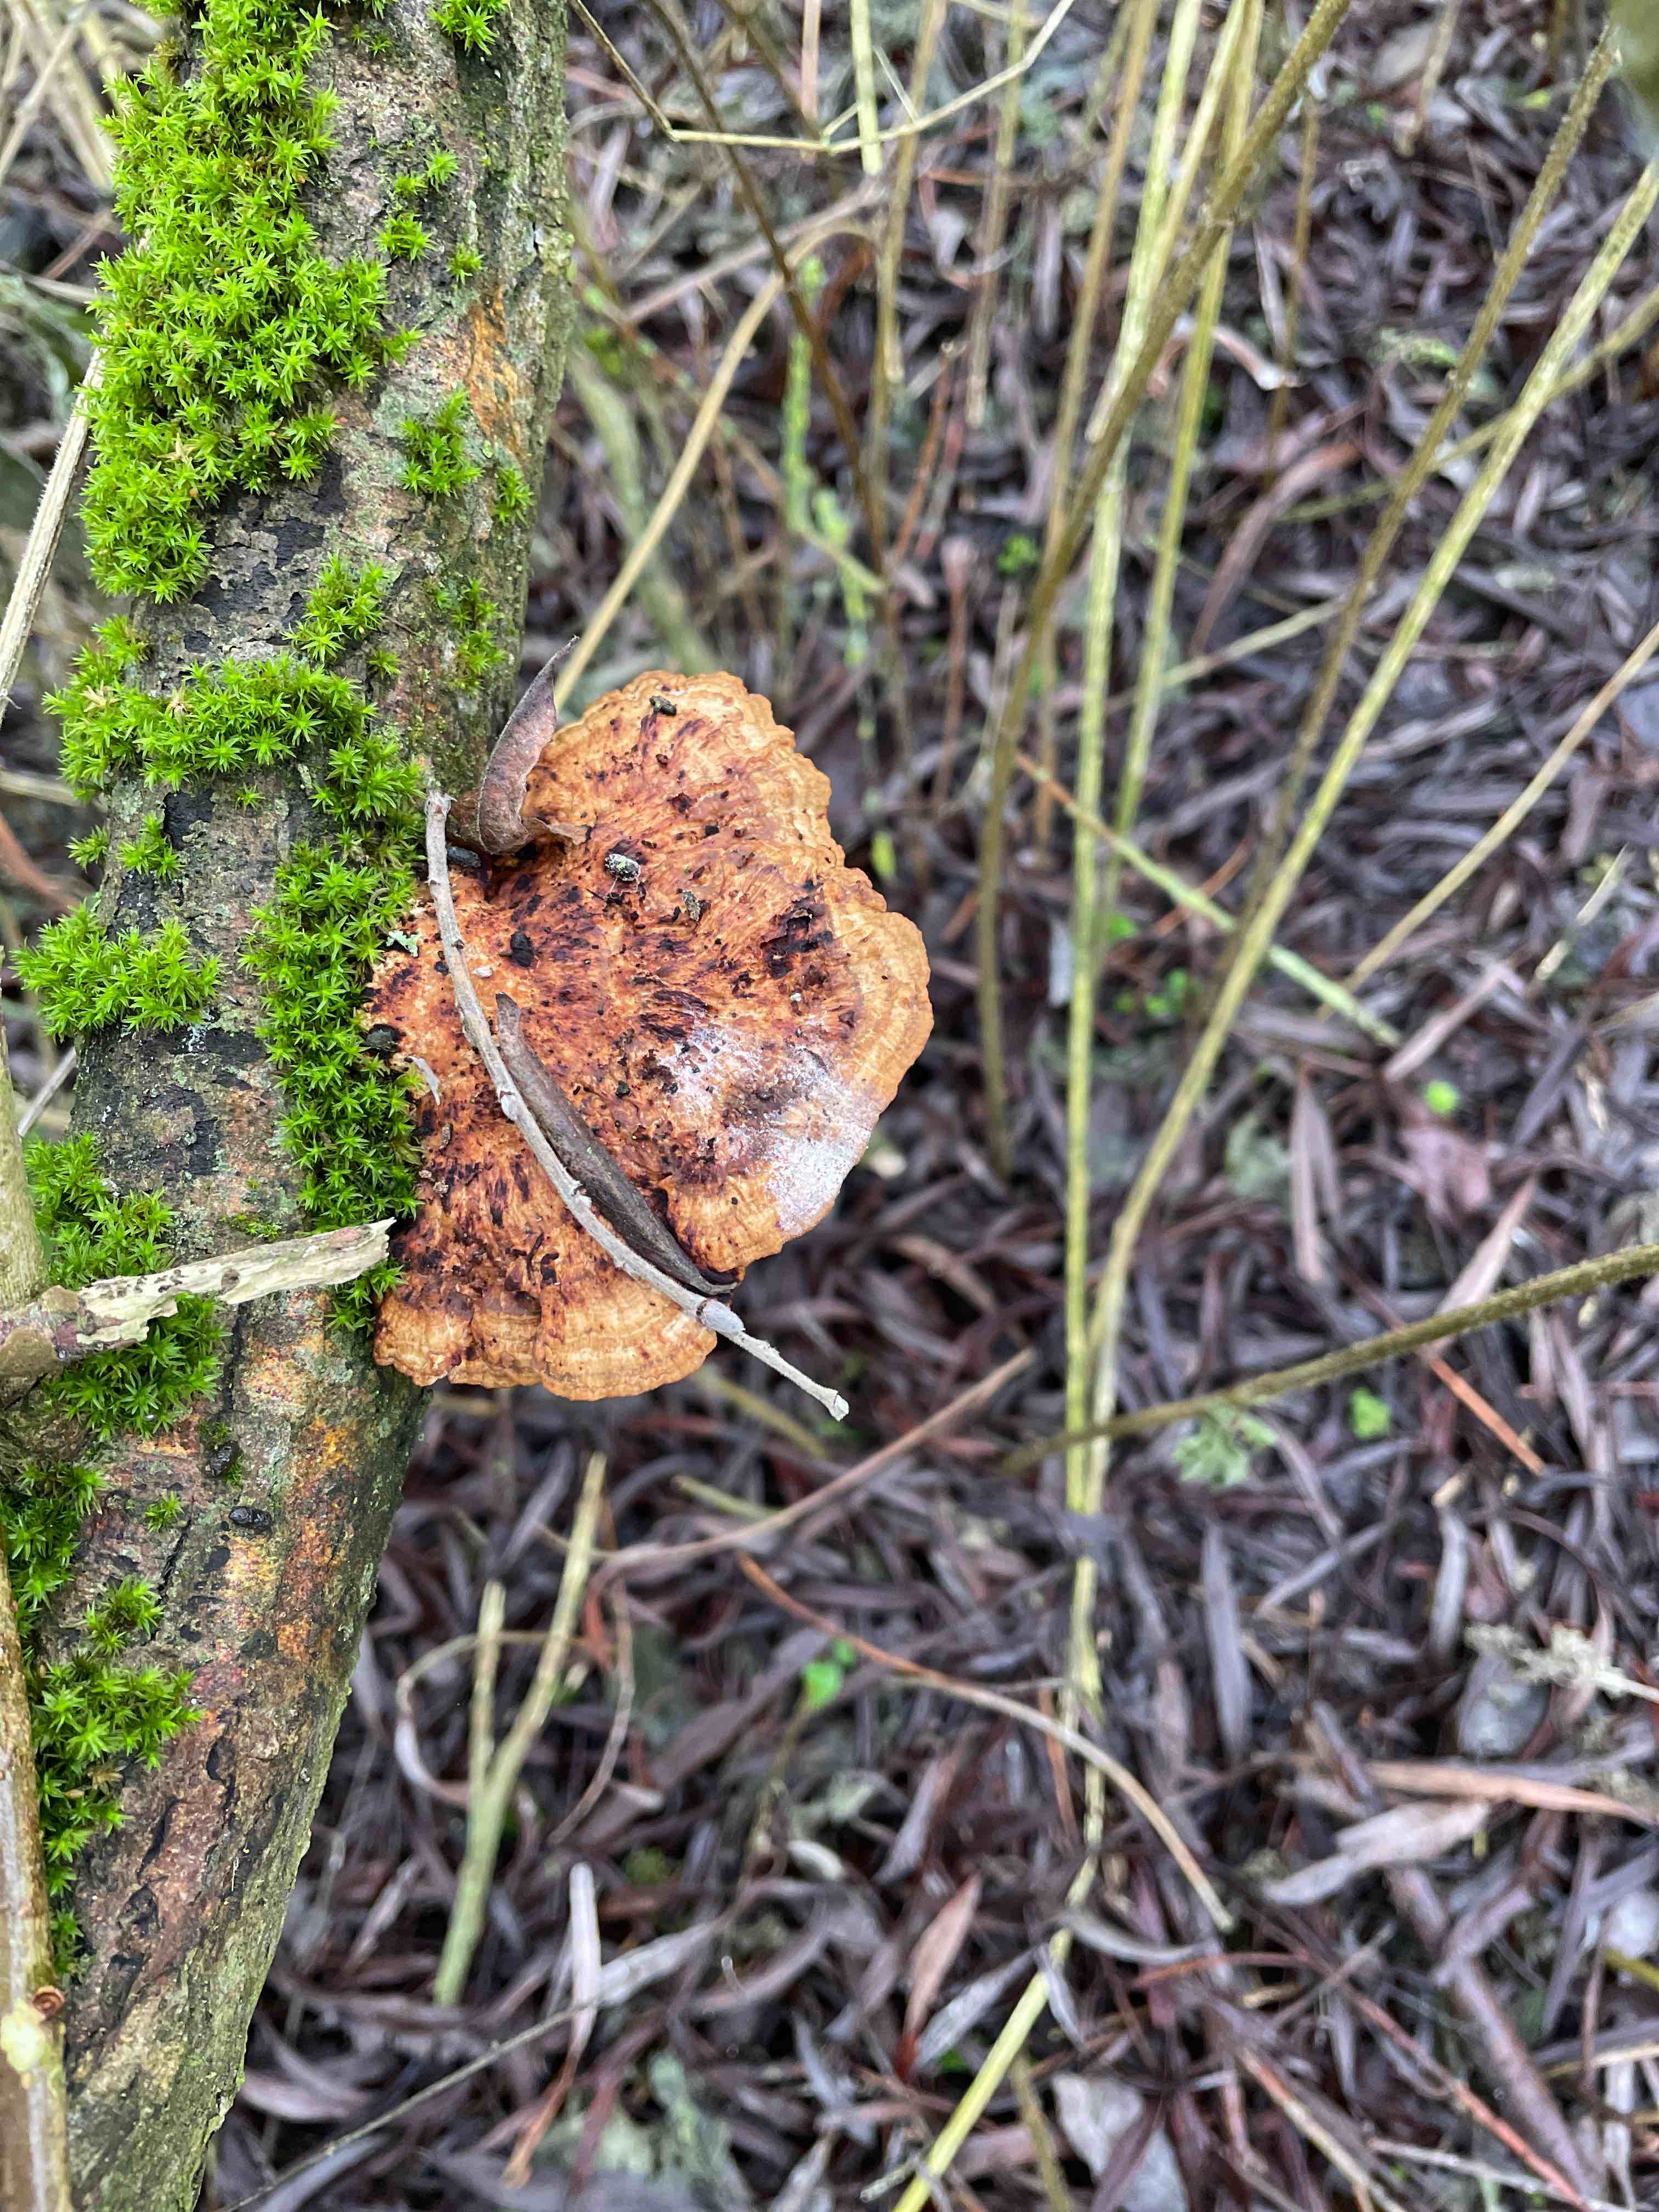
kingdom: Fungi
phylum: Basidiomycota
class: Agaricomycetes
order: Polyporales
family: Polyporaceae
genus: Daedaleopsis
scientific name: Daedaleopsis confragosa
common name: rødmende læderporesvamp
